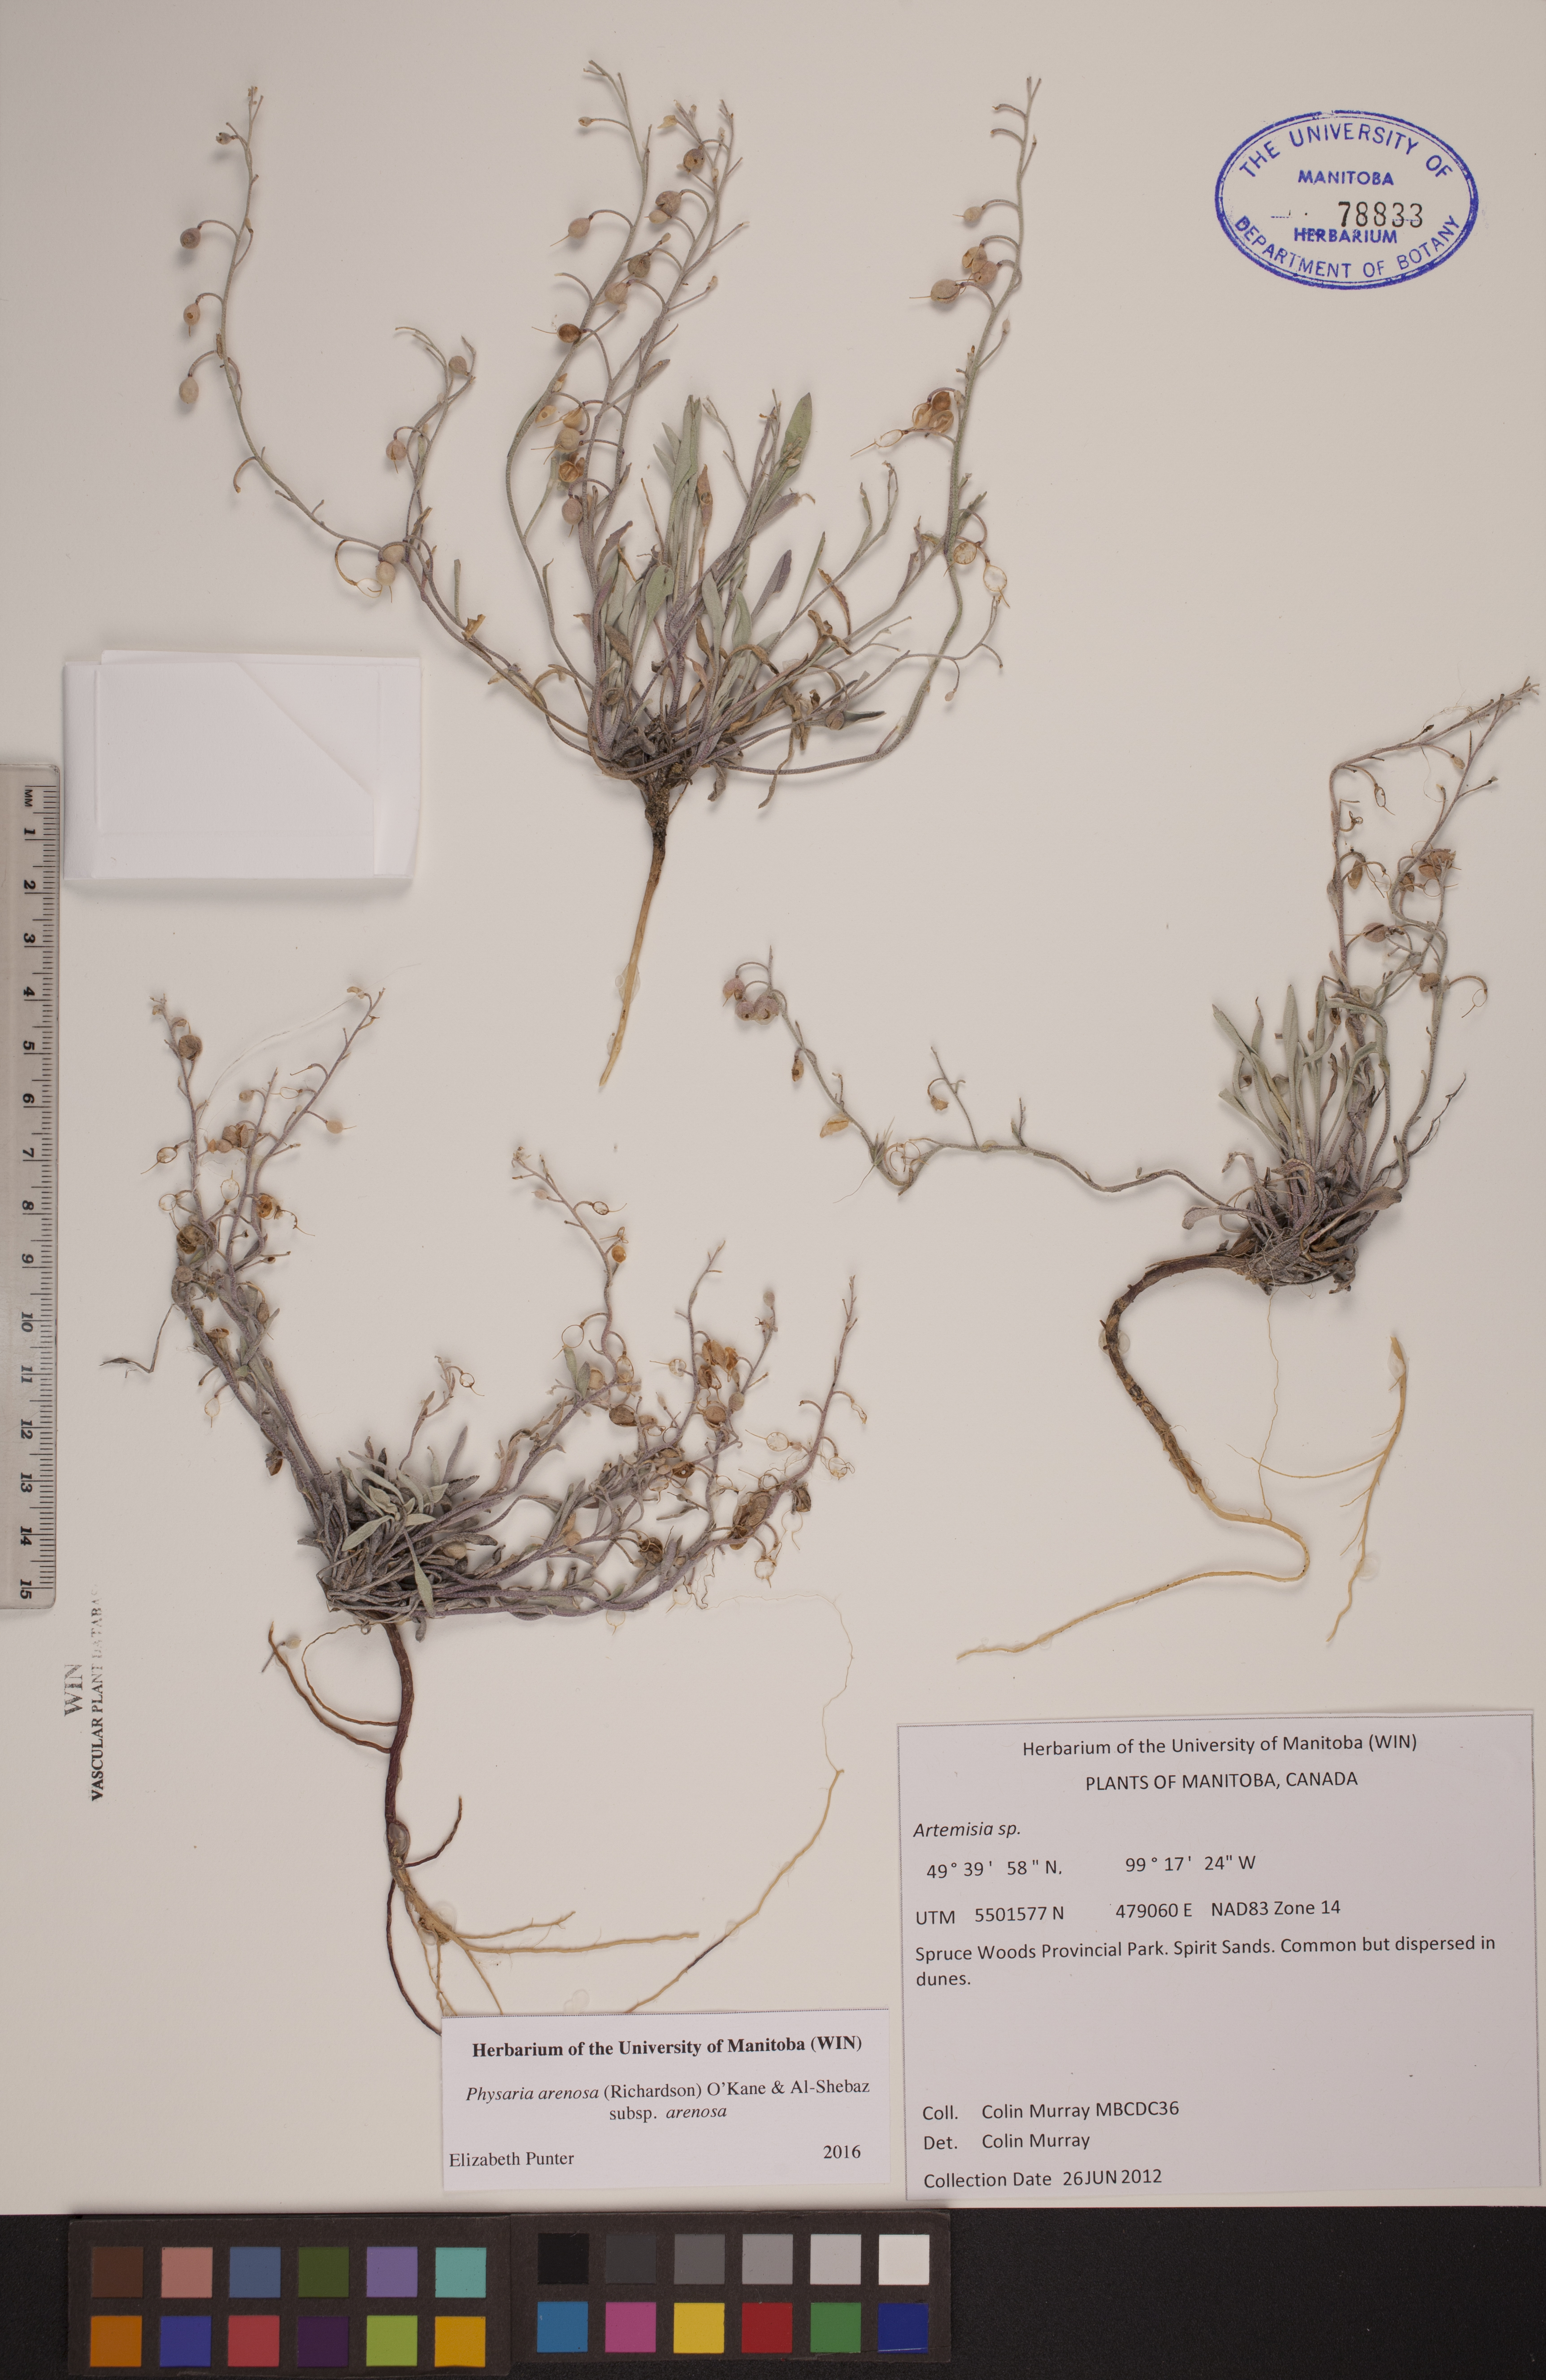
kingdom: Plantae
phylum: Tracheophyta
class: Magnoliopsida
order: Brassicales
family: Brassicaceae
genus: Physaria
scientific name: Physaria arenosa
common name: Great plains bladderpod
